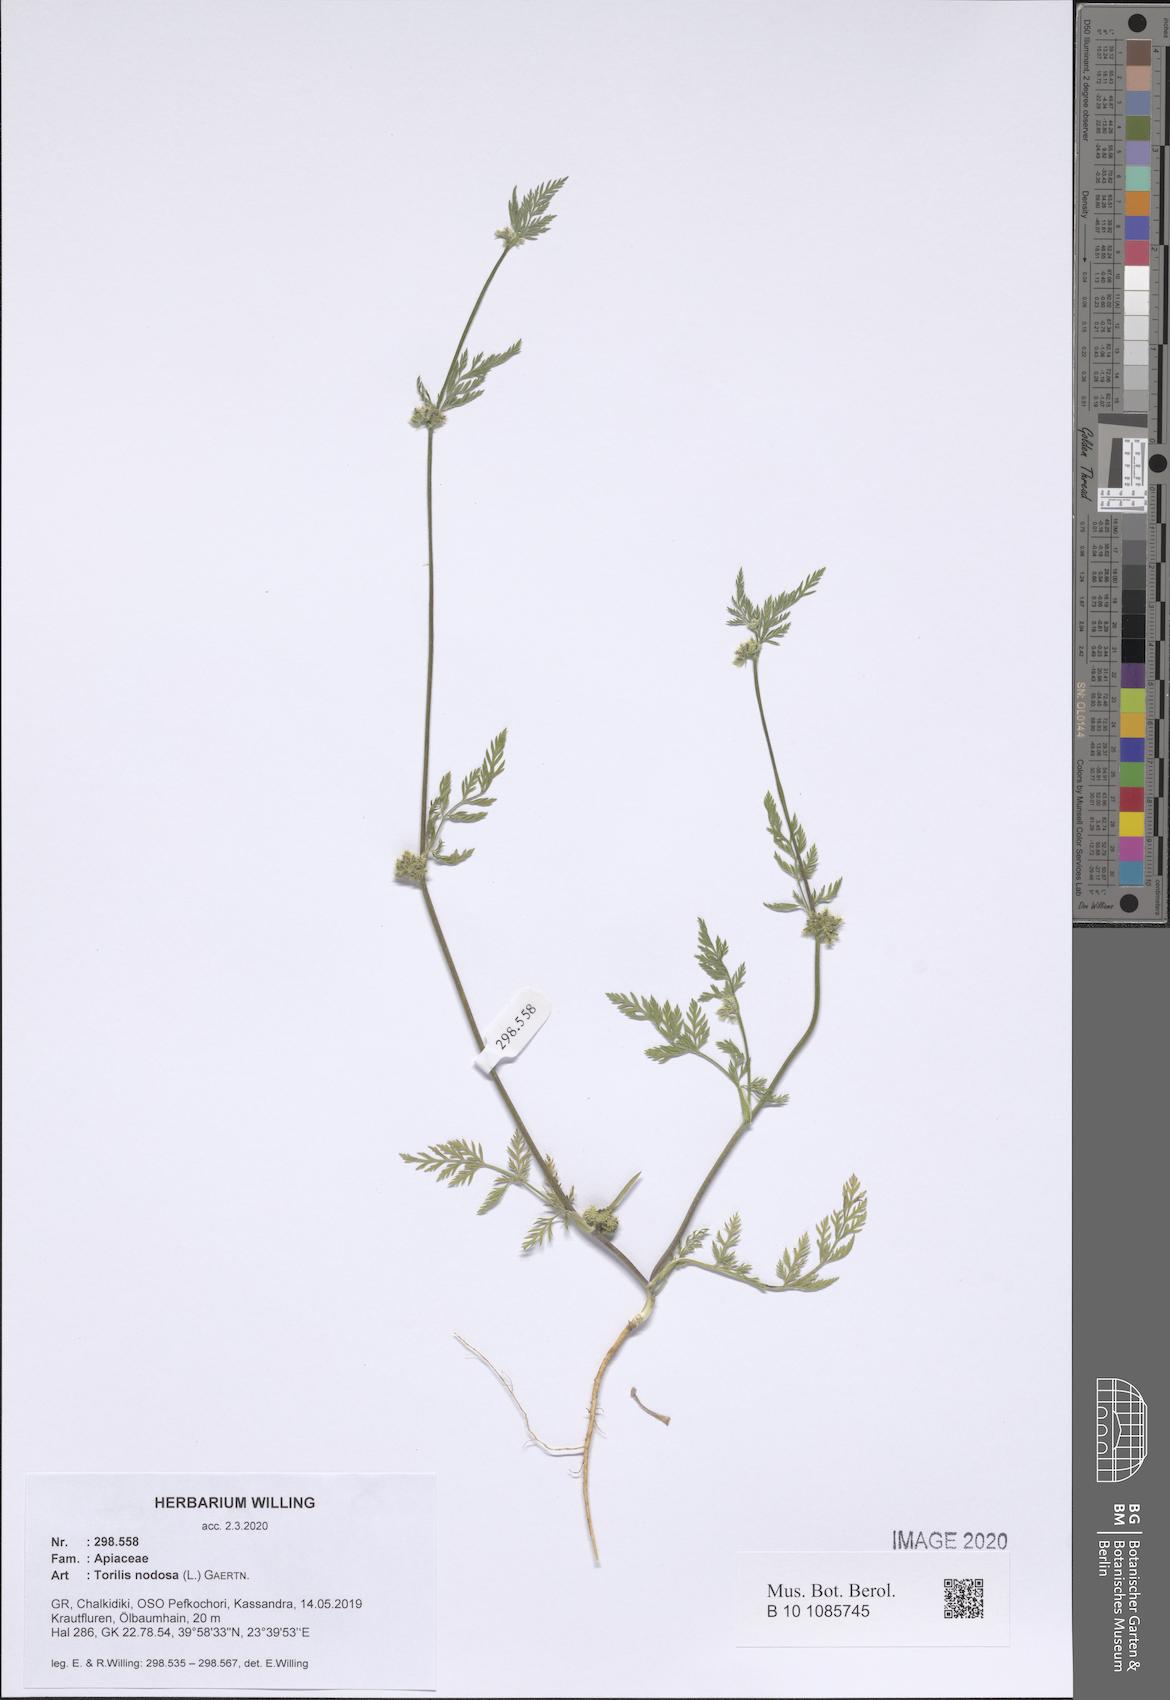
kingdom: Plantae
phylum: Tracheophyta
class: Magnoliopsida
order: Apiales
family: Apiaceae
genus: Torilis
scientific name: Torilis nodosa
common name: Knotted hedge-parsley
